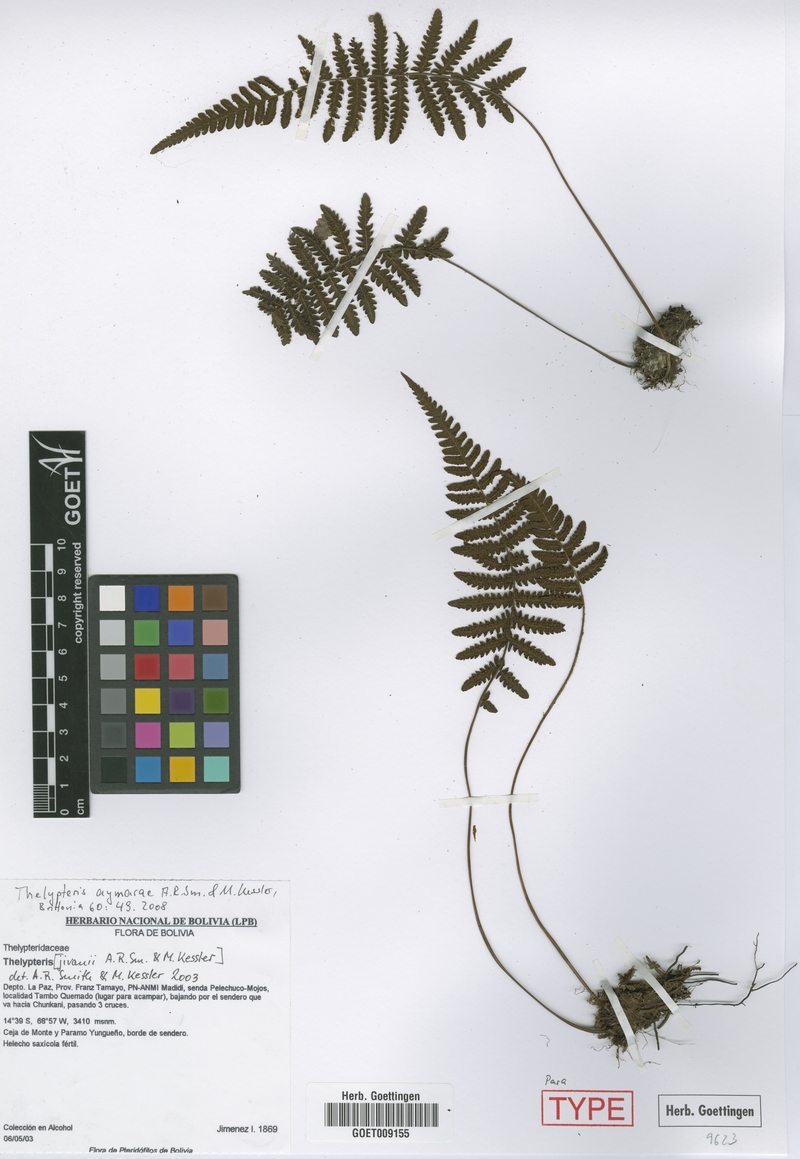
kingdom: Plantae
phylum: Tracheophyta
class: Polypodiopsida
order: Polypodiales
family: Thelypteridaceae
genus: Amauropelta
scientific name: Amauropelta aymarae
